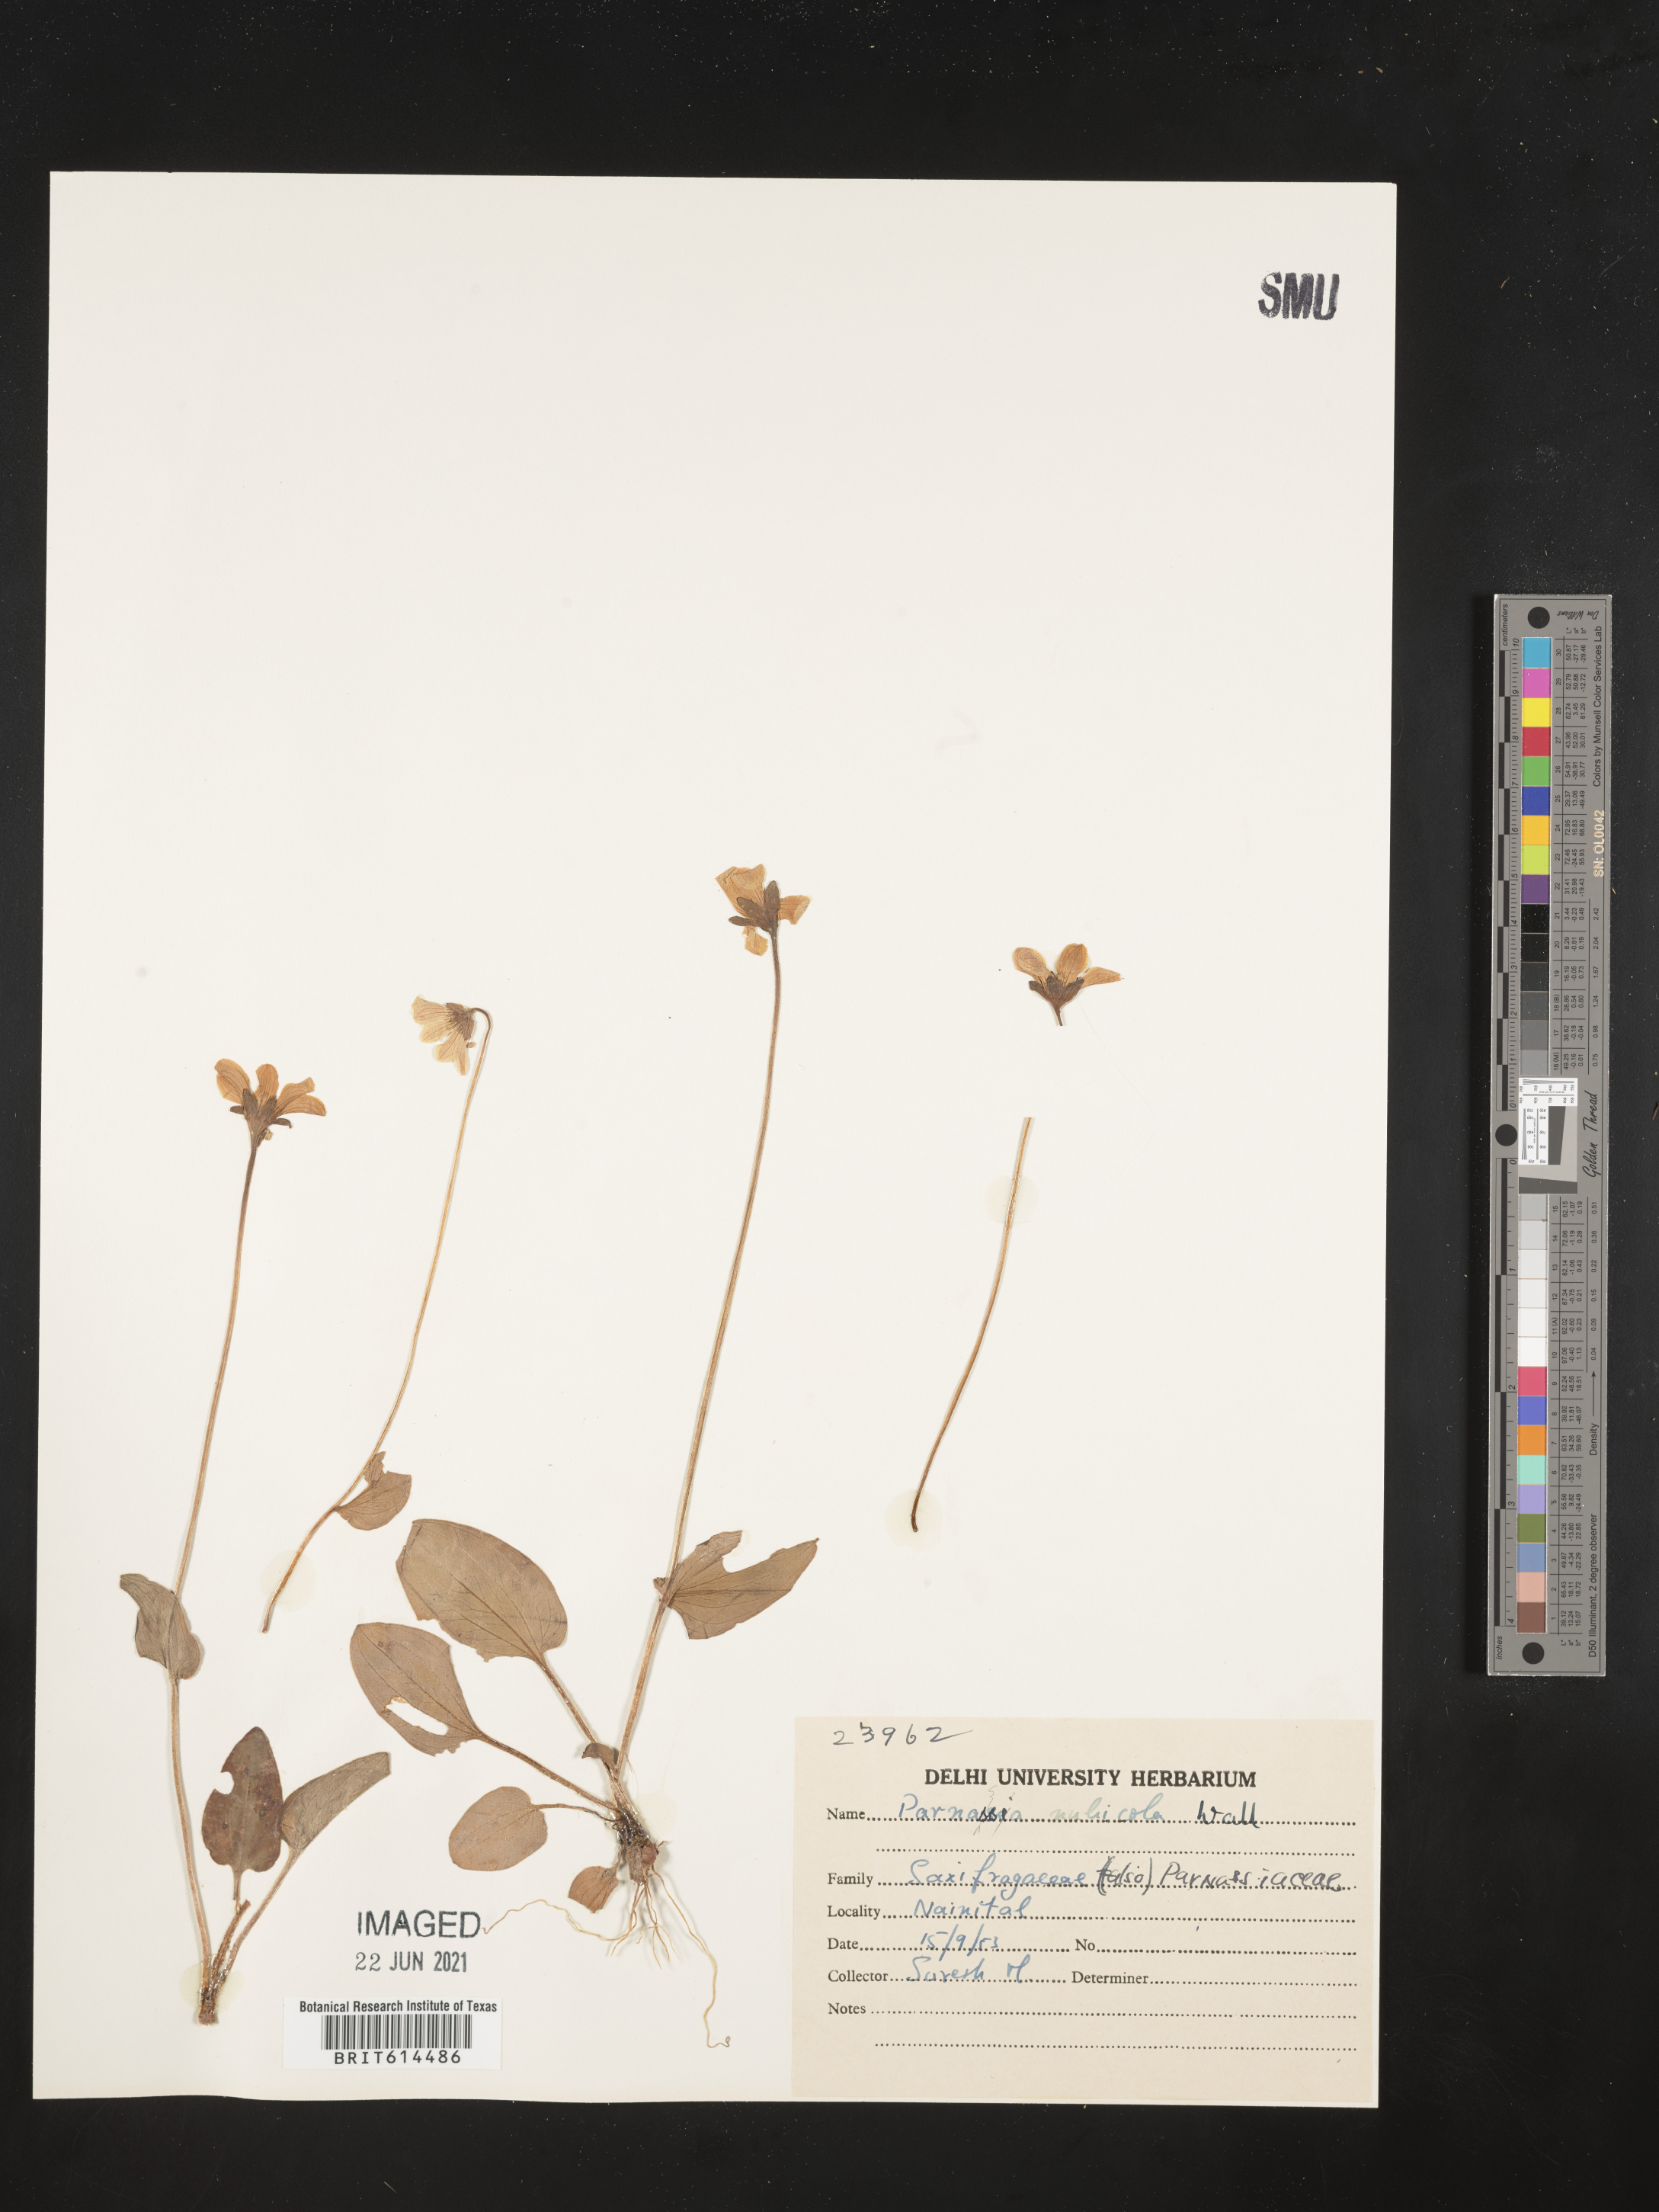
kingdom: Plantae
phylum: Tracheophyta
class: Magnoliopsida
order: Celastrales
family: Parnassiaceae
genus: Parnassia
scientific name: Parnassia nubicola
